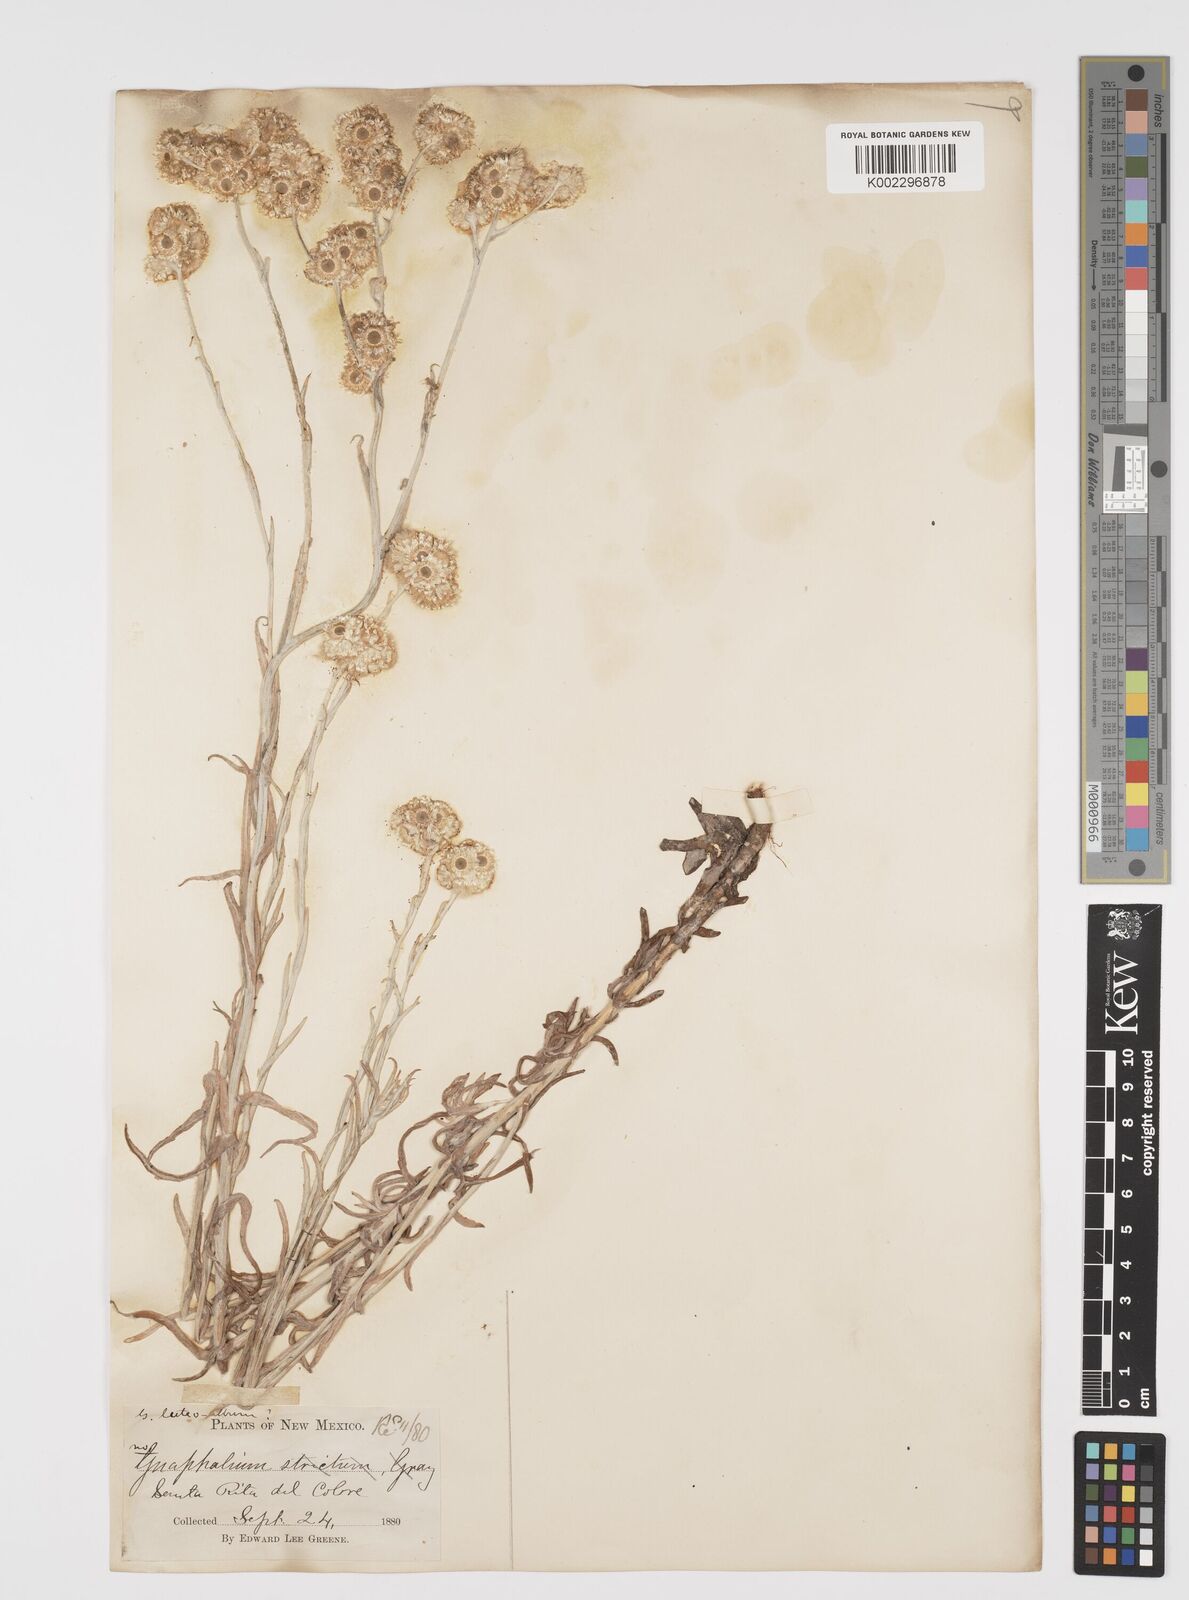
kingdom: Plantae
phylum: Tracheophyta
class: Magnoliopsida
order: Asterales
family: Asteraceae
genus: Helichrysum
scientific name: Helichrysum luteoalbum
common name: Daisy
